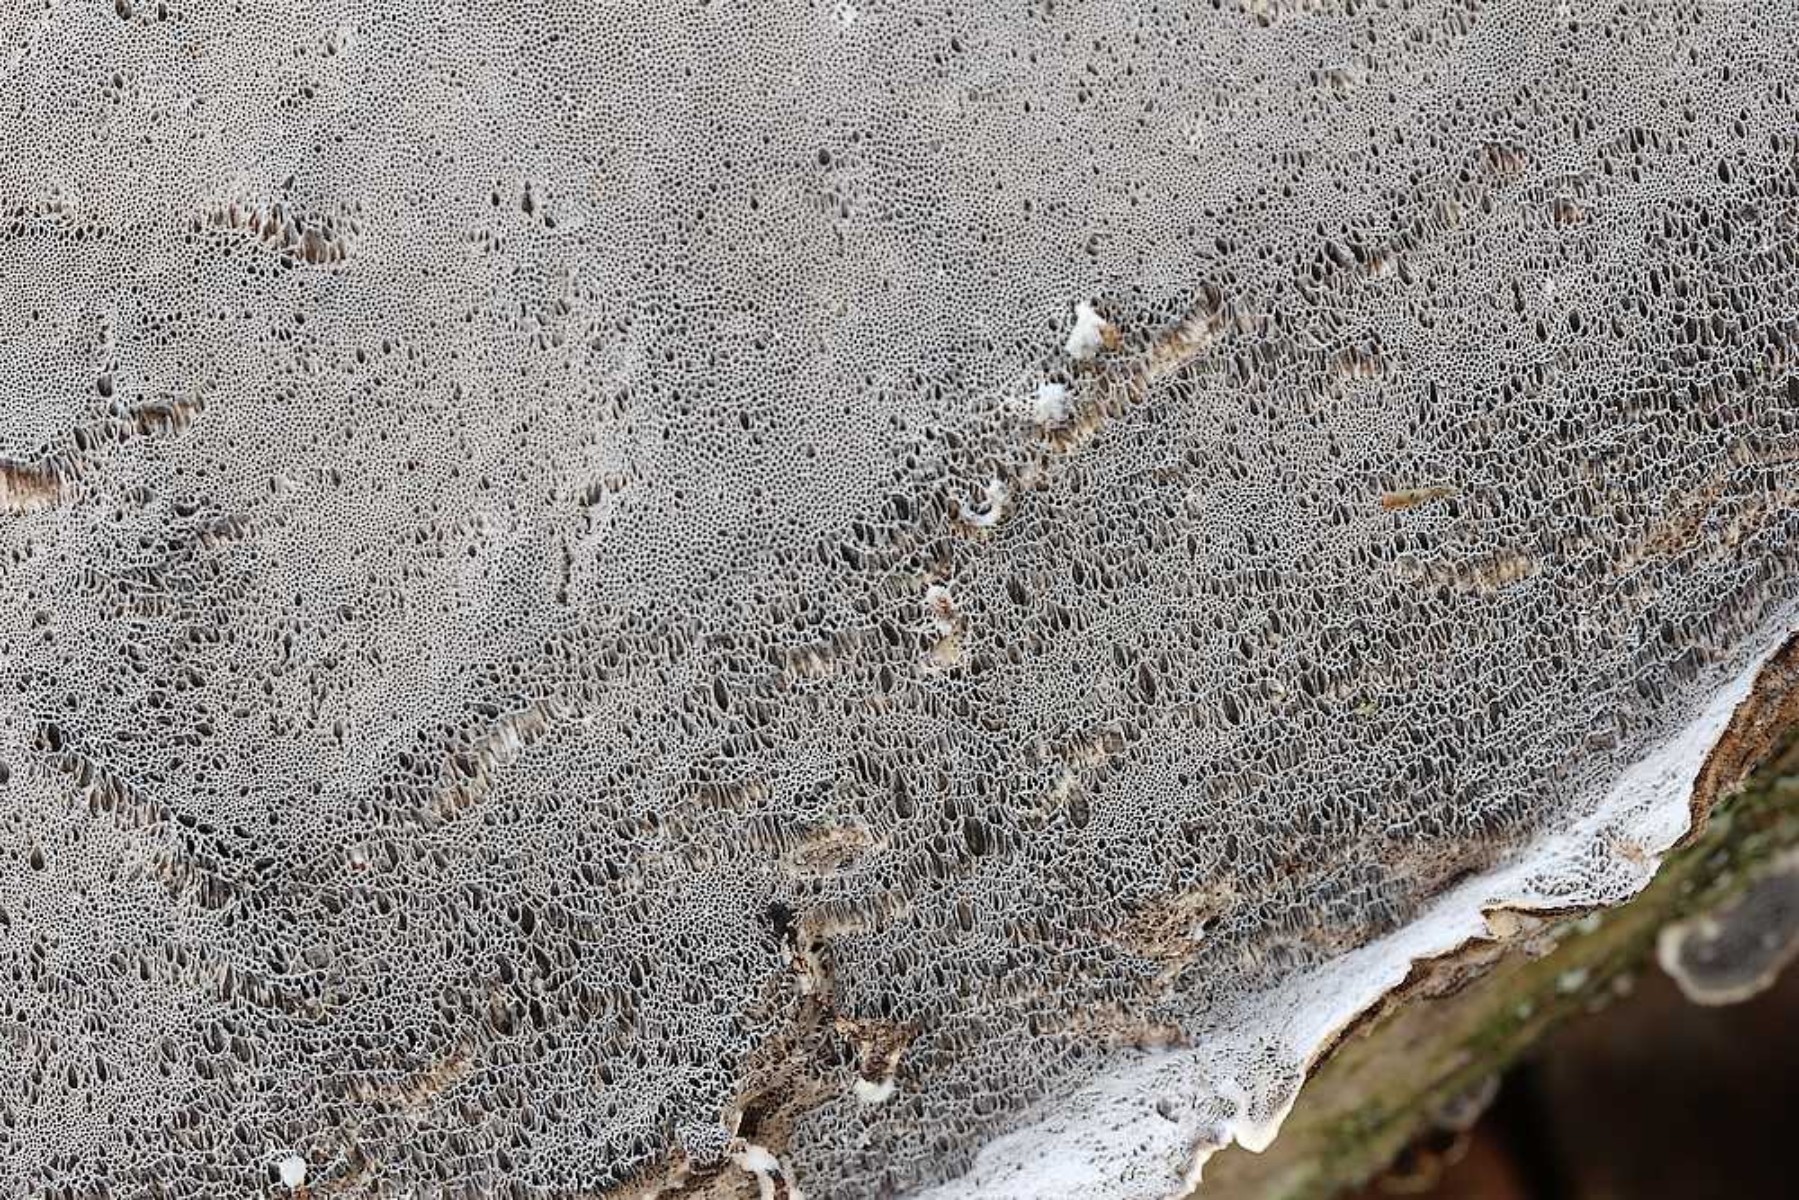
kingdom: Fungi
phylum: Basidiomycota
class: Agaricomycetes
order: Polyporales
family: Phanerochaetaceae
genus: Bjerkandera
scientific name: Bjerkandera adusta
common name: sveden sodporesvamp
